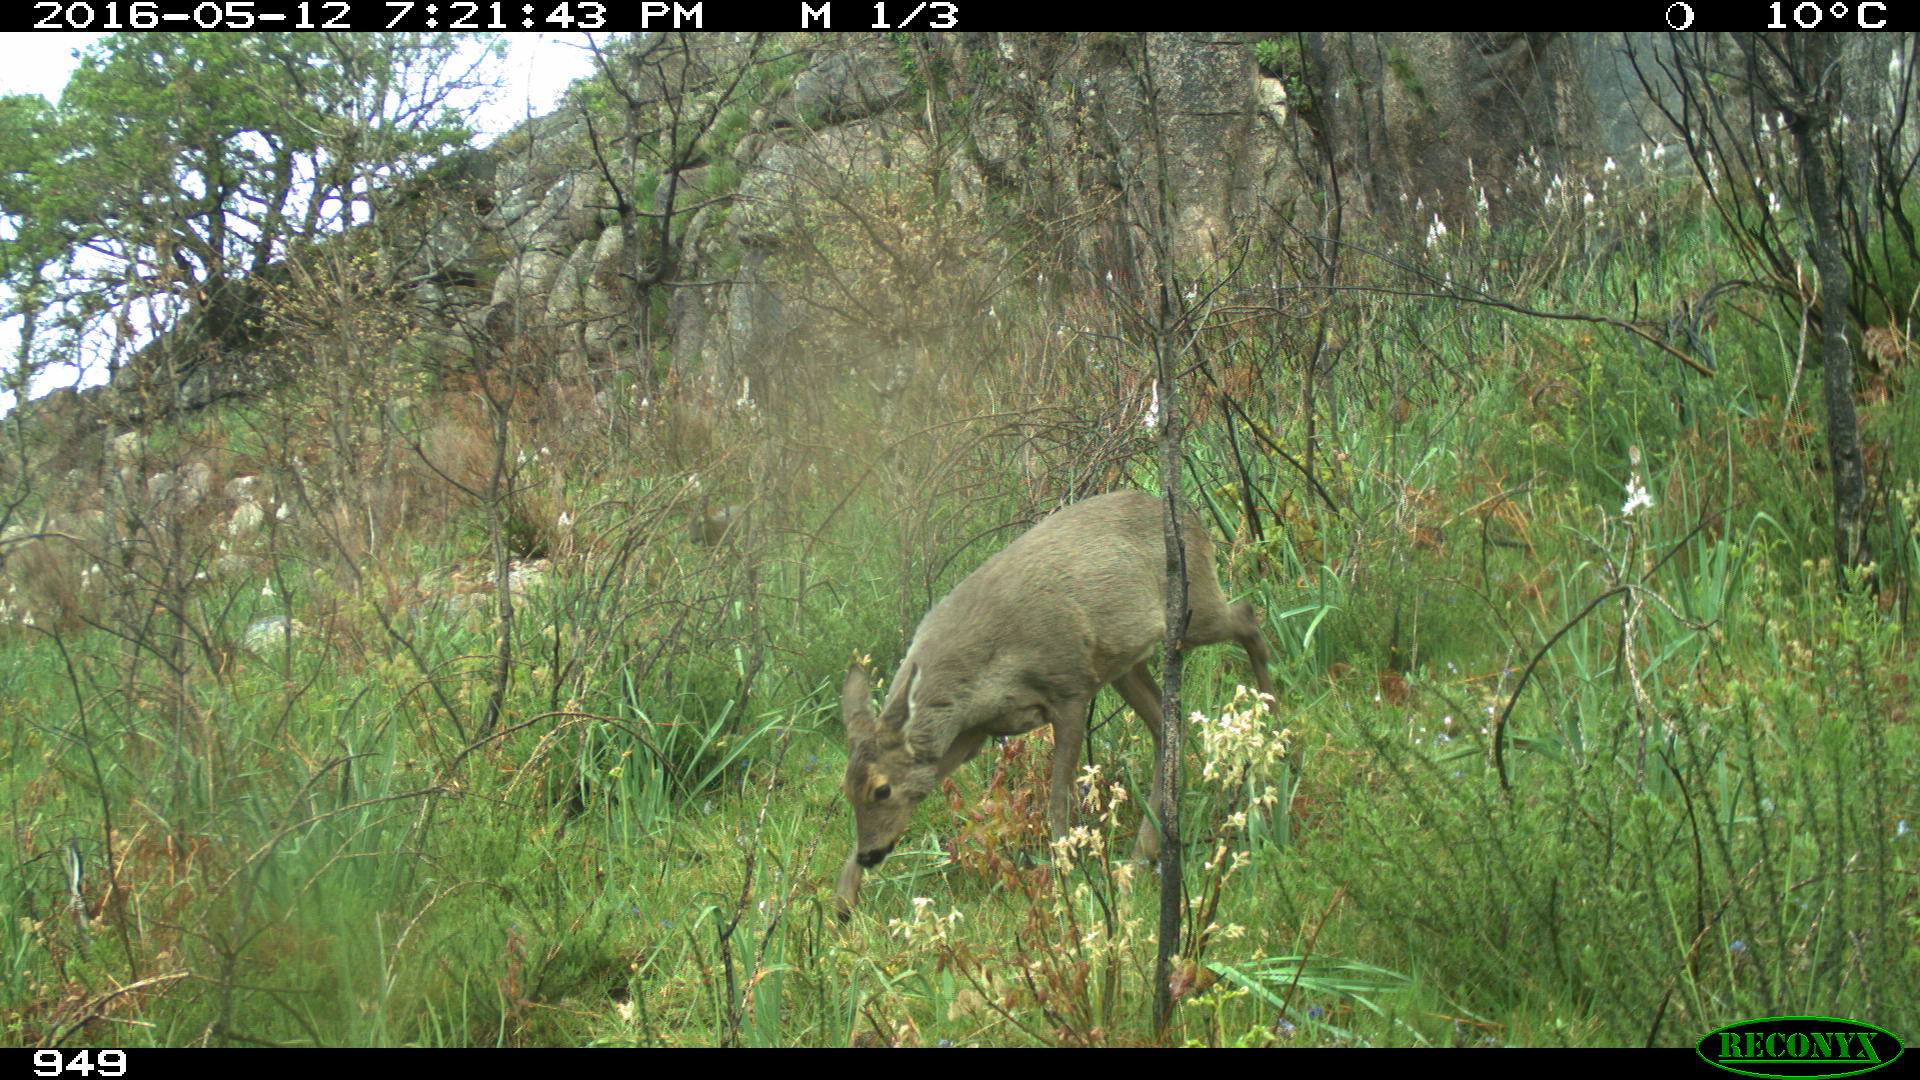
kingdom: Animalia
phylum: Chordata
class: Mammalia
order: Artiodactyla
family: Cervidae
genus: Capreolus
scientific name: Capreolus capreolus
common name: Western roe deer
